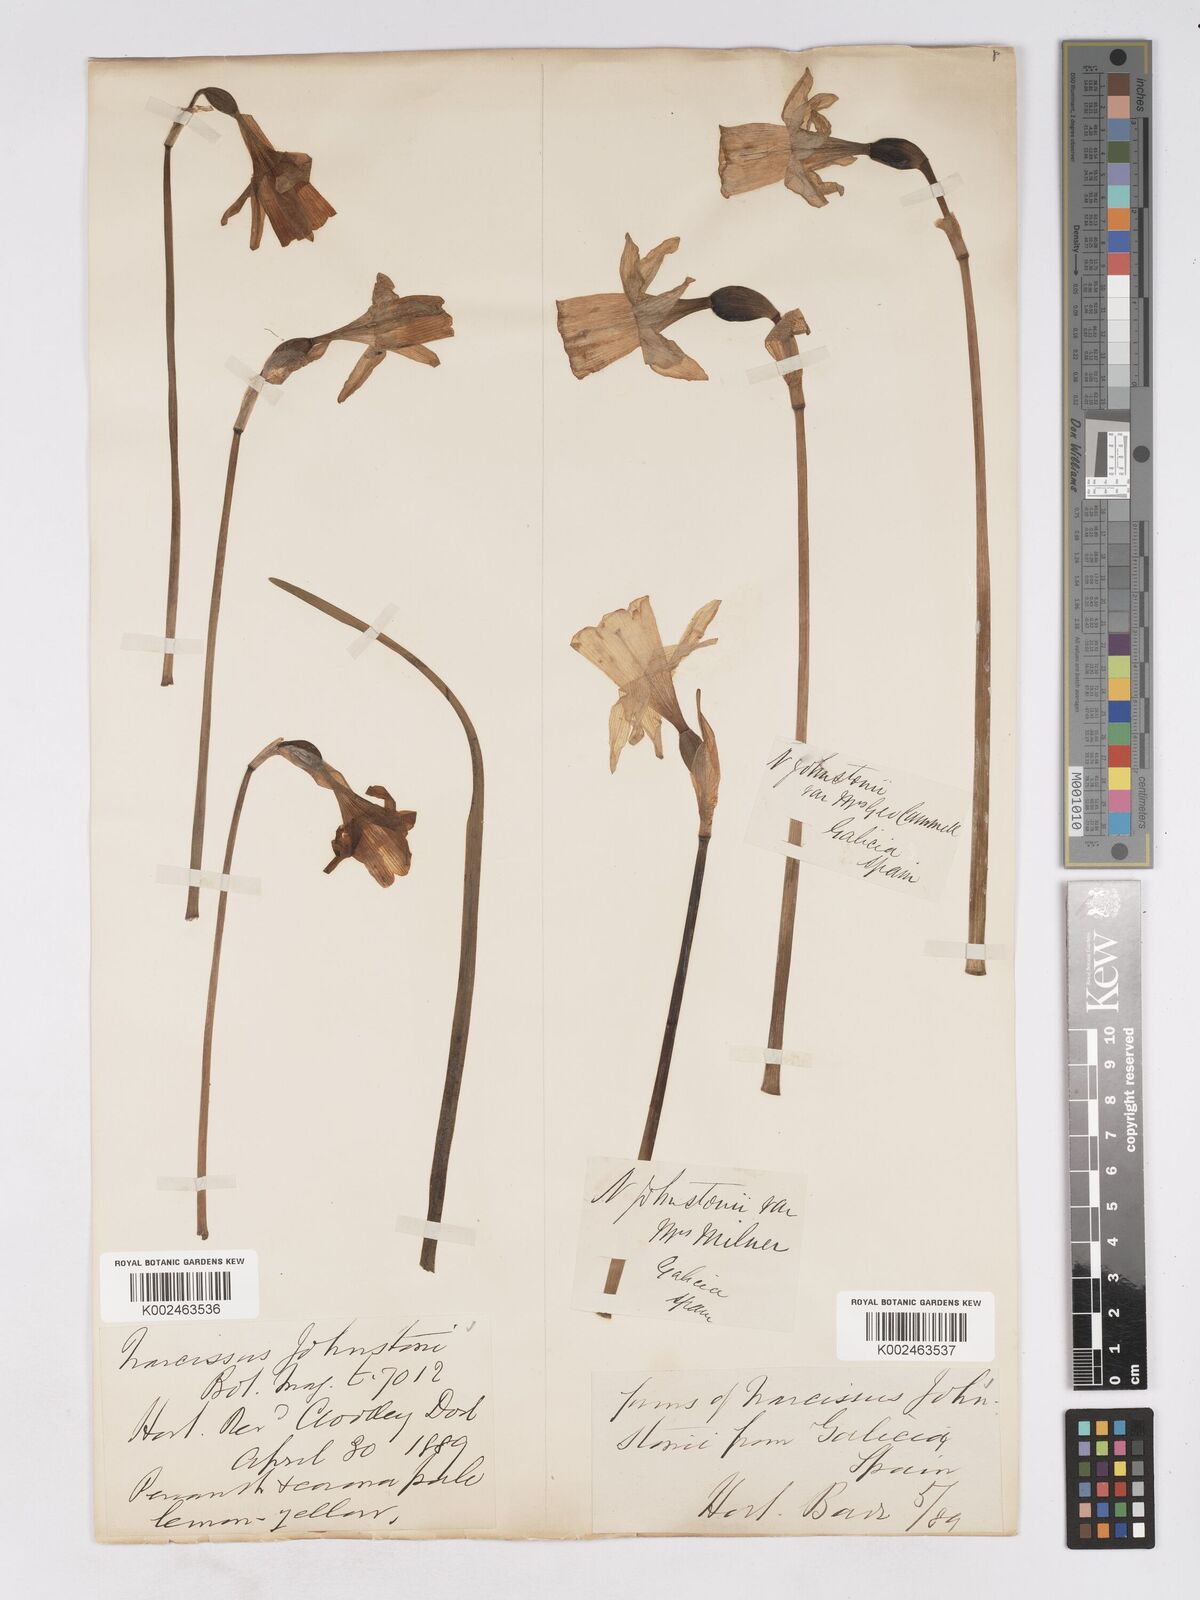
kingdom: Plantae
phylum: Tracheophyta
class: Liliopsida
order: Asparagales
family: Amaryllidaceae
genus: Narcissus
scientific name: Narcissus taitii
